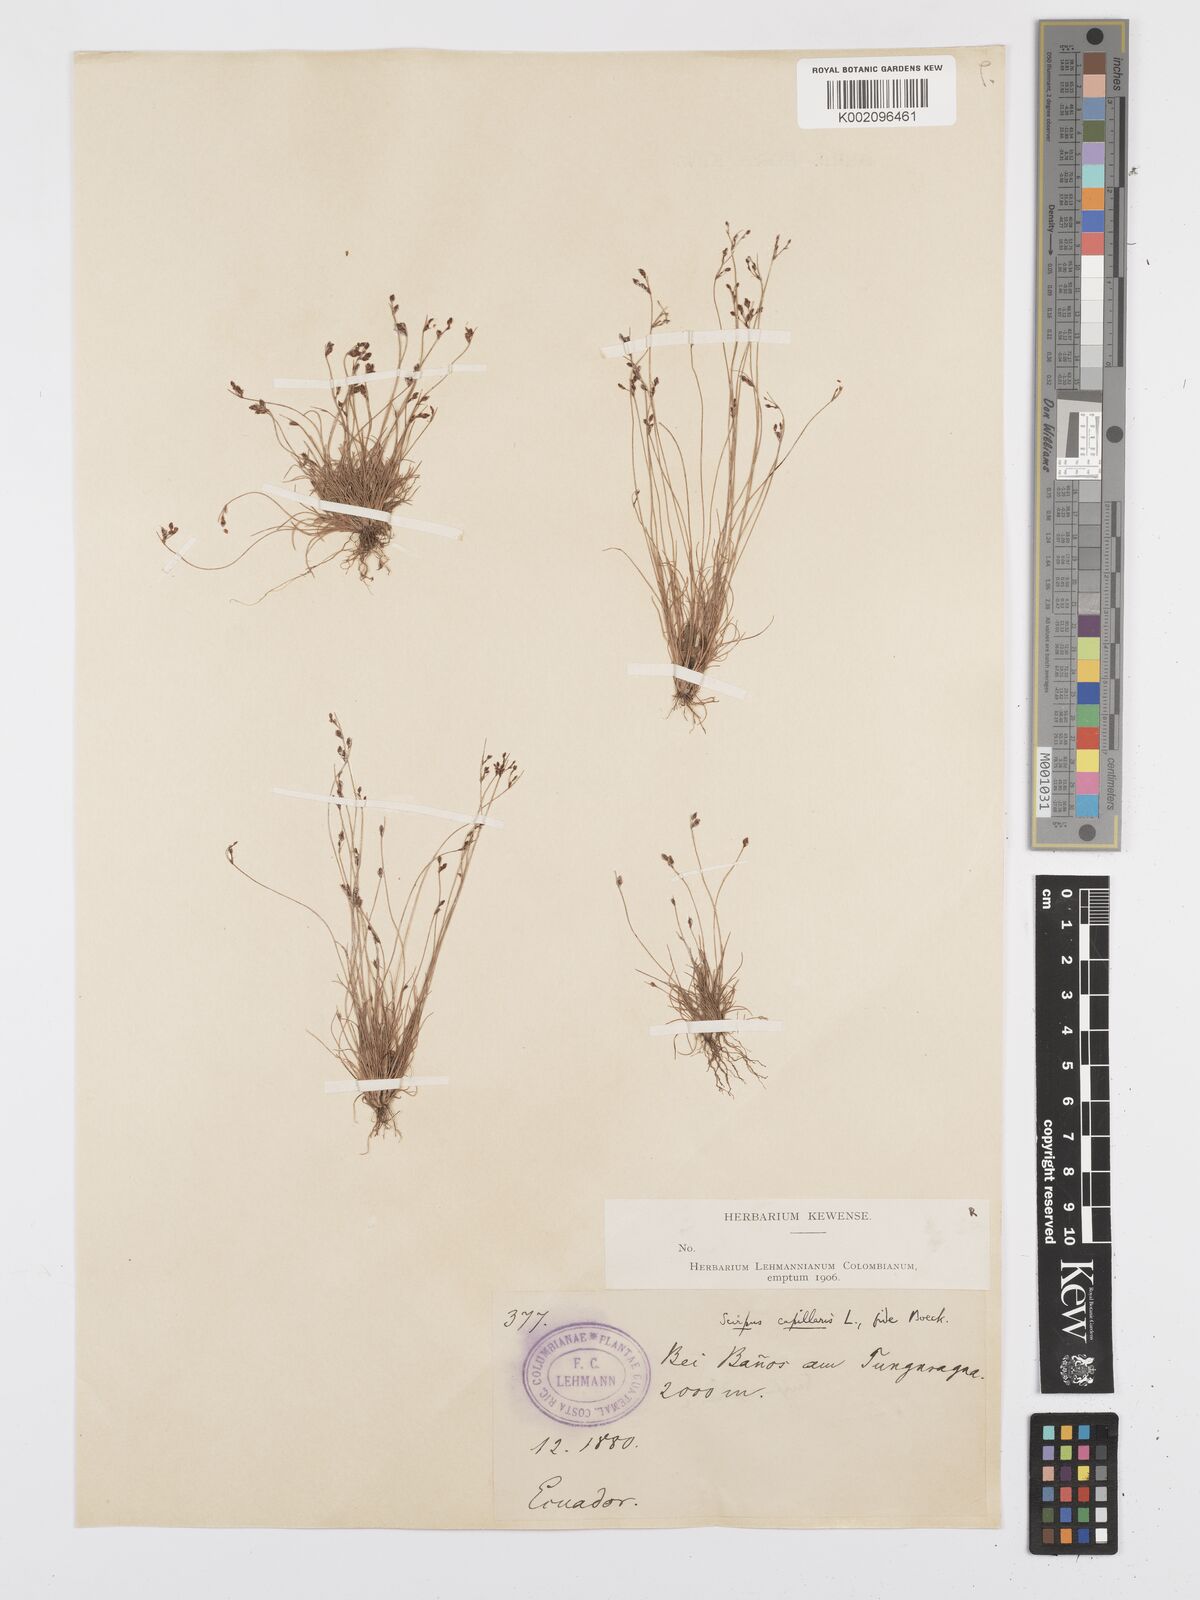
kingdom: Plantae
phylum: Tracheophyta
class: Liliopsida
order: Poales
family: Cyperaceae
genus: Bulbostylis
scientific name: Bulbostylis tenuifolia
